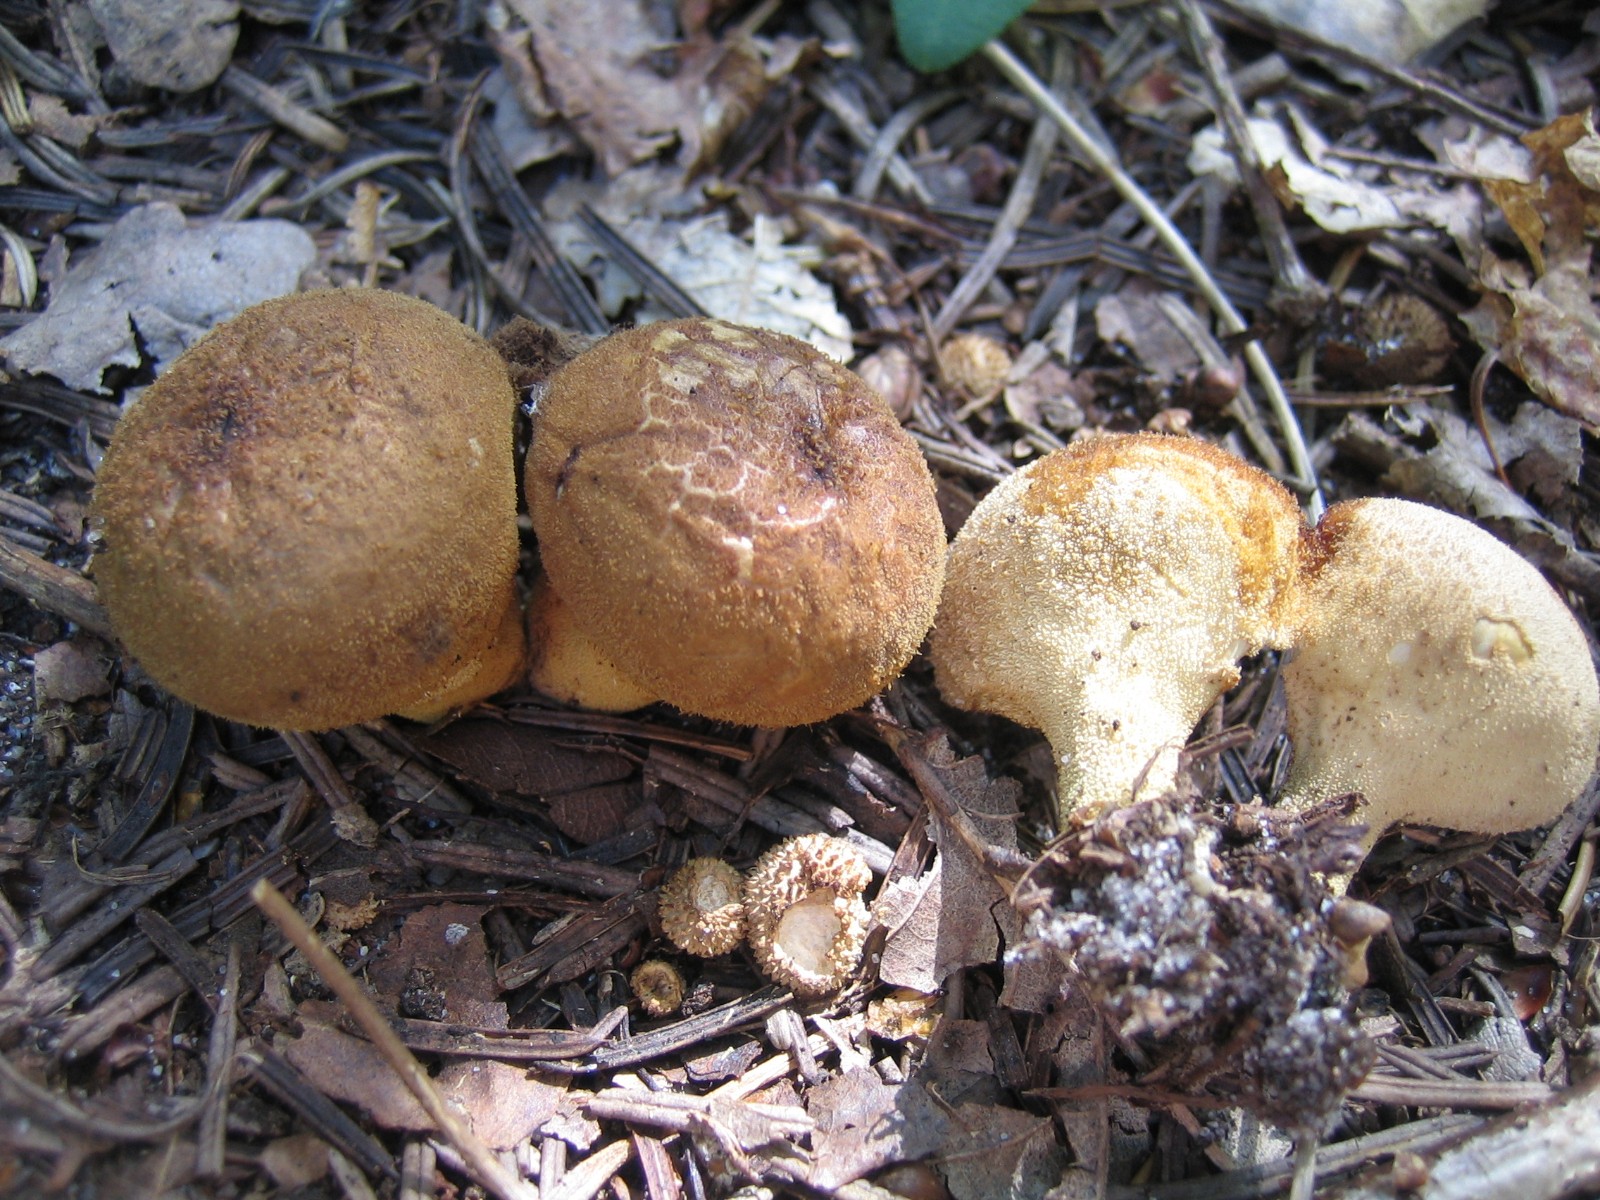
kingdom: Fungi
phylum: Basidiomycota
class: Agaricomycetes
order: Agaricales
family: Lycoperdaceae
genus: Lycoperdon
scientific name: Lycoperdon perlatum
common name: krystal-støvbold
